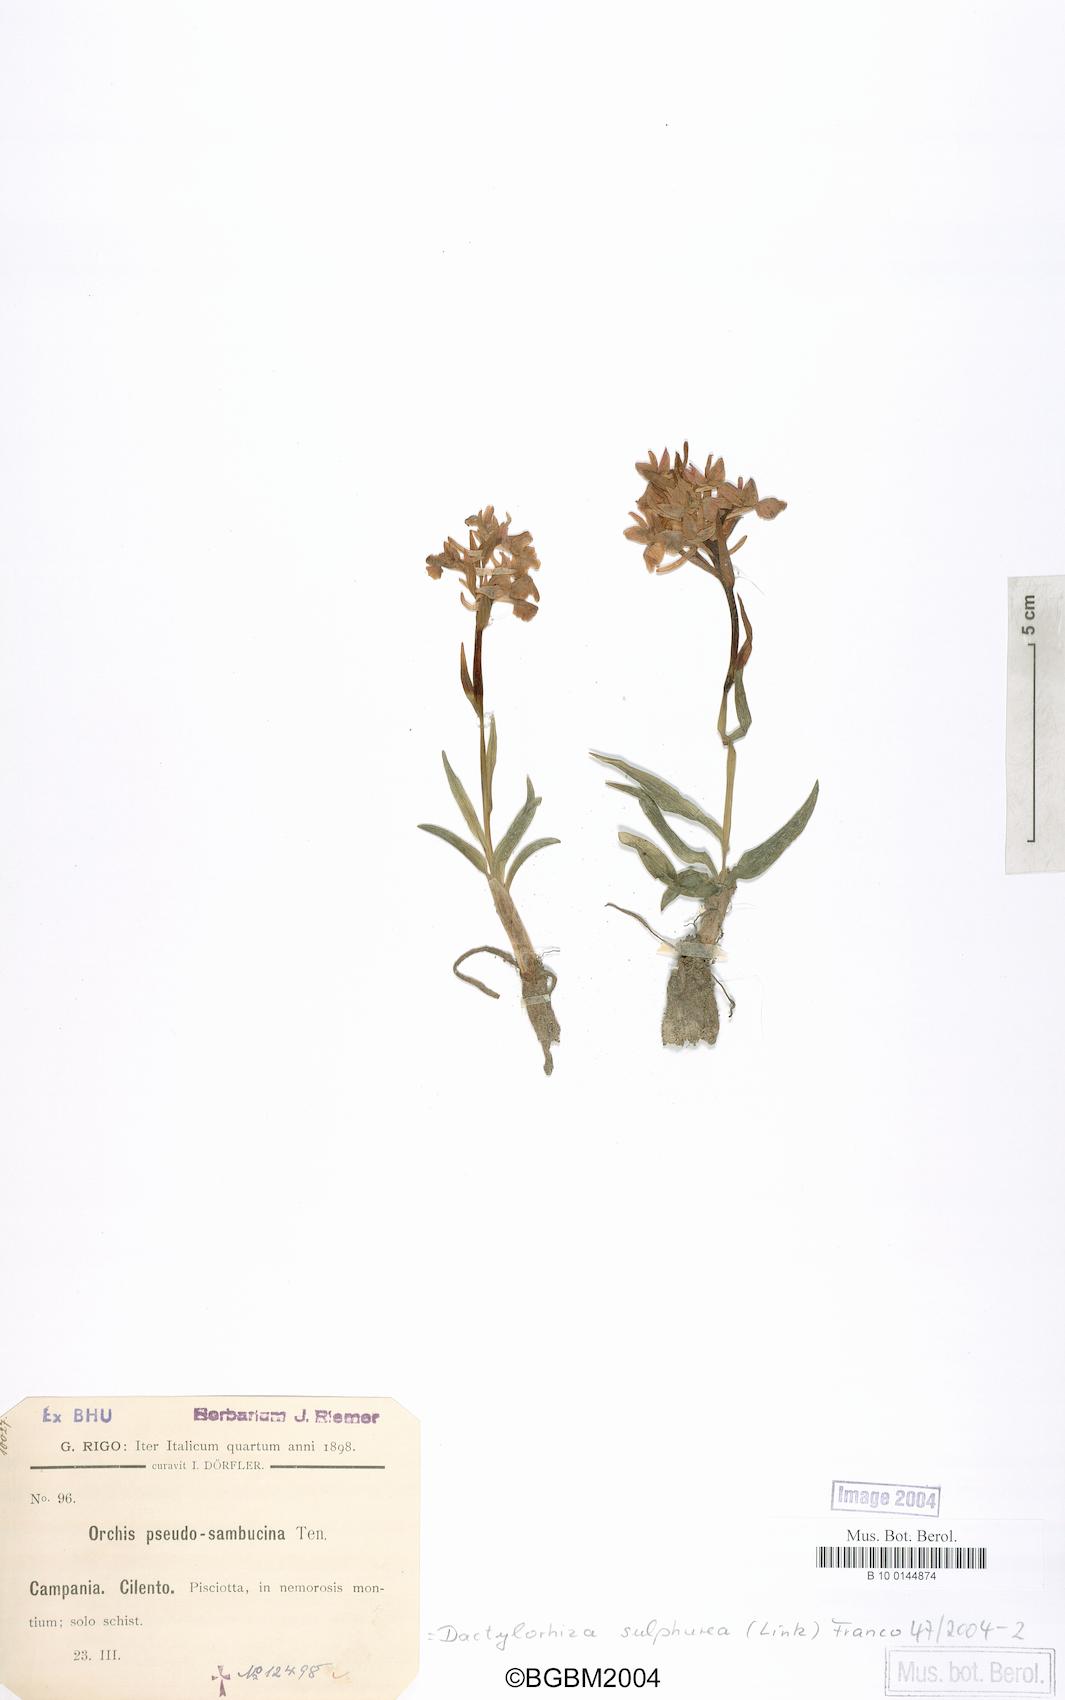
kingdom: Plantae
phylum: Tracheophyta
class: Liliopsida
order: Asparagales
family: Orchidaceae
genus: Dactylorhiza
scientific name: Dactylorhiza romana
